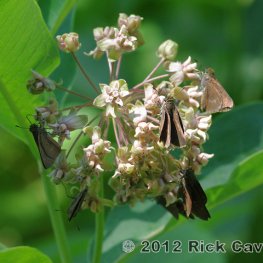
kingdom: Animalia
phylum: Arthropoda
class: Insecta
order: Lepidoptera
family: Hesperiidae
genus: Euphyes
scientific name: Euphyes vestris
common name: Dun Skipper
